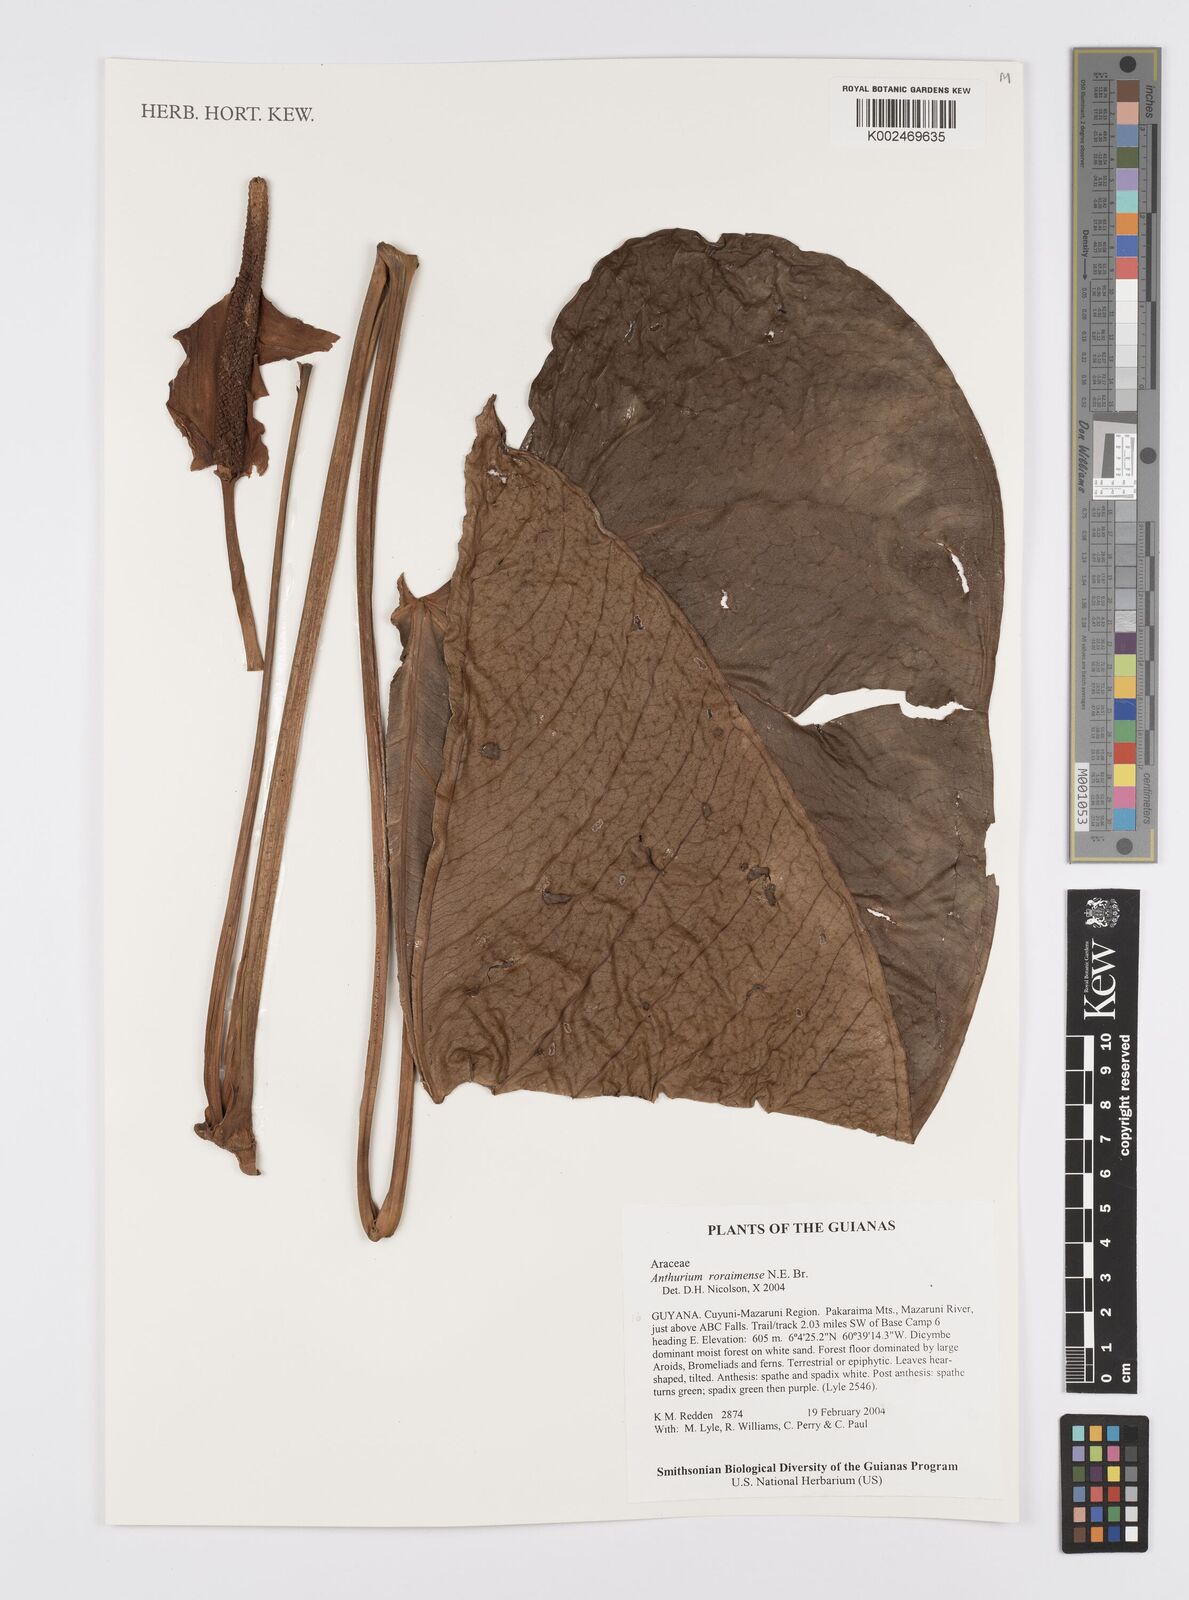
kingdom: Plantae
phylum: Tracheophyta
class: Liliopsida
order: Alismatales
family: Araceae
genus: Anthurium
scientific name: Anthurium roraimense
